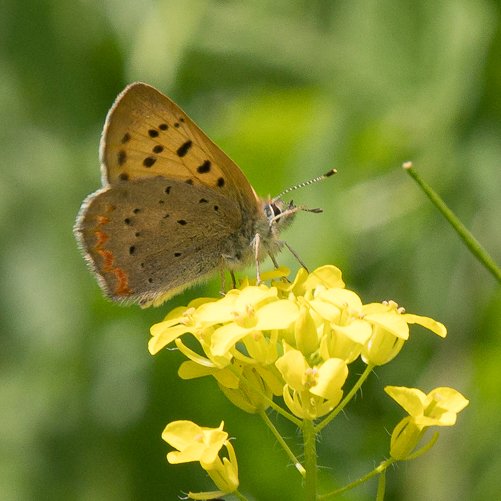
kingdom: Animalia
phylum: Arthropoda
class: Insecta
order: Lepidoptera
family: Sesiidae
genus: Sesia
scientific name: Sesia Lycaena helloides
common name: Purplish Copper
